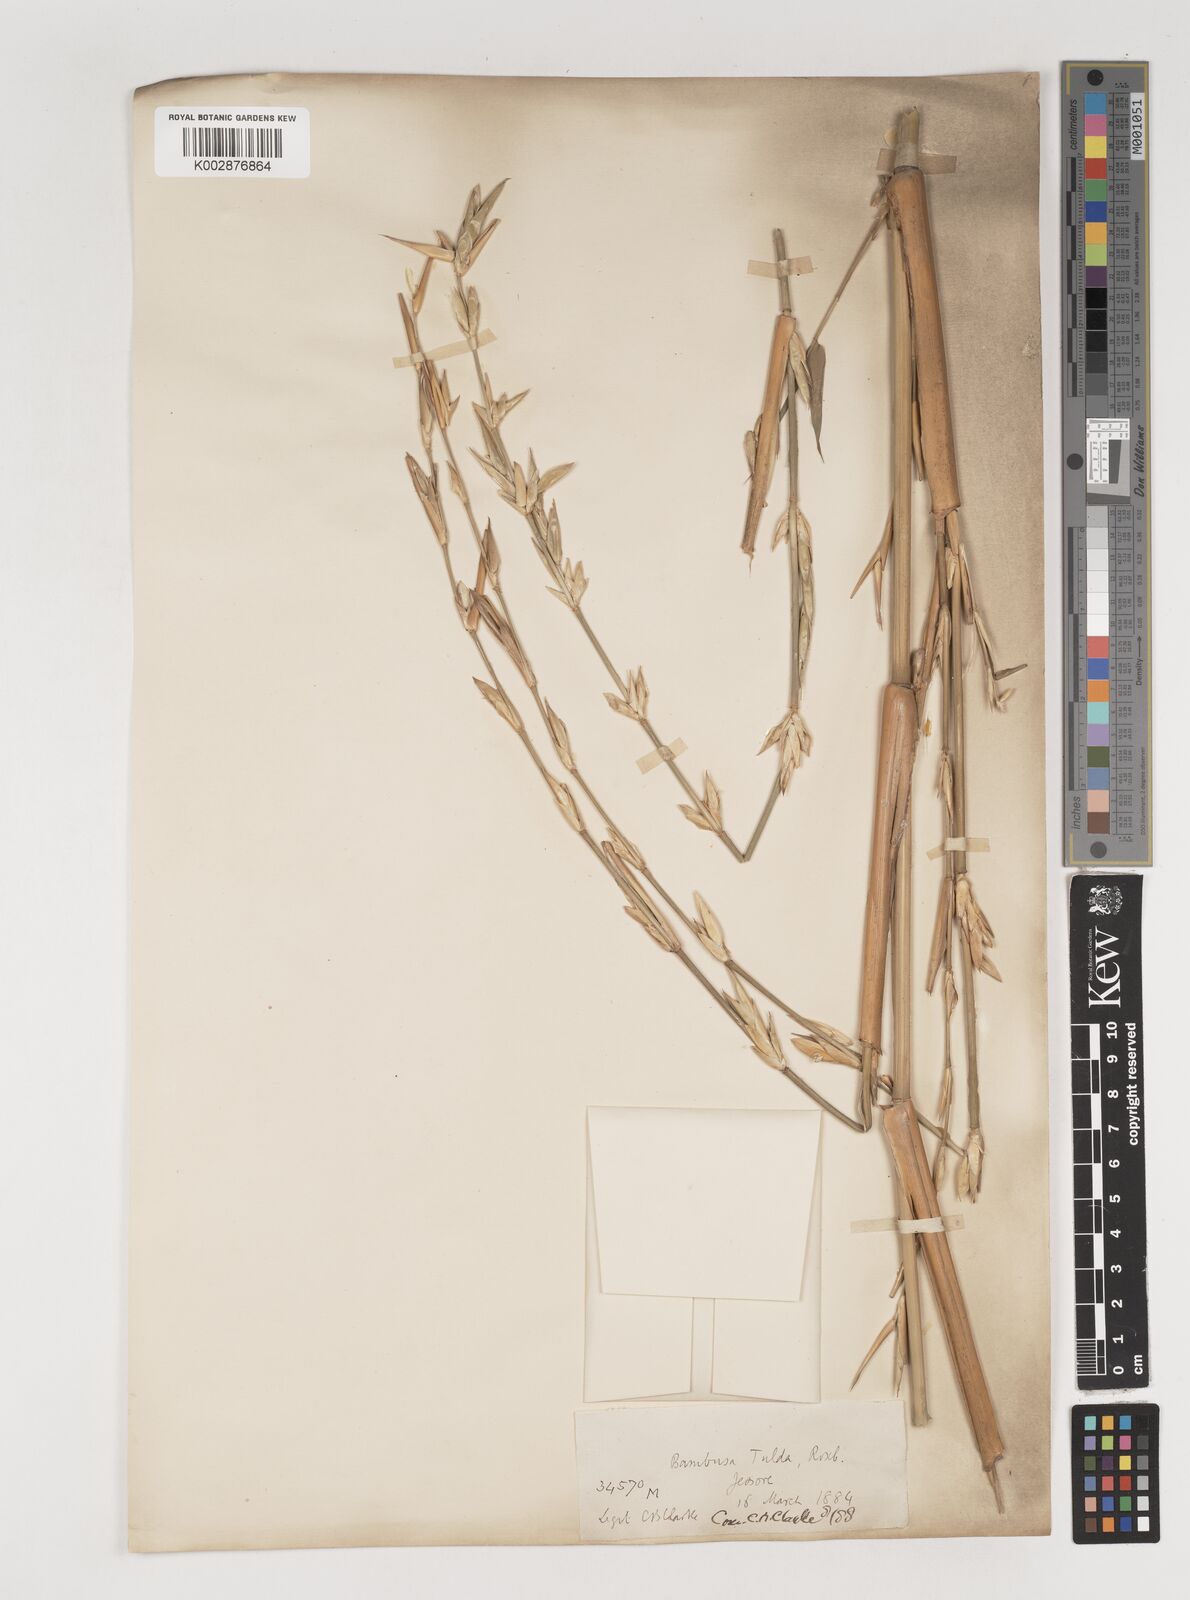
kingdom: Plantae
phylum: Tracheophyta
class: Liliopsida
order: Poales
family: Poaceae
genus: Bambusa
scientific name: Bambusa tuldoides
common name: Verdant bamboo
